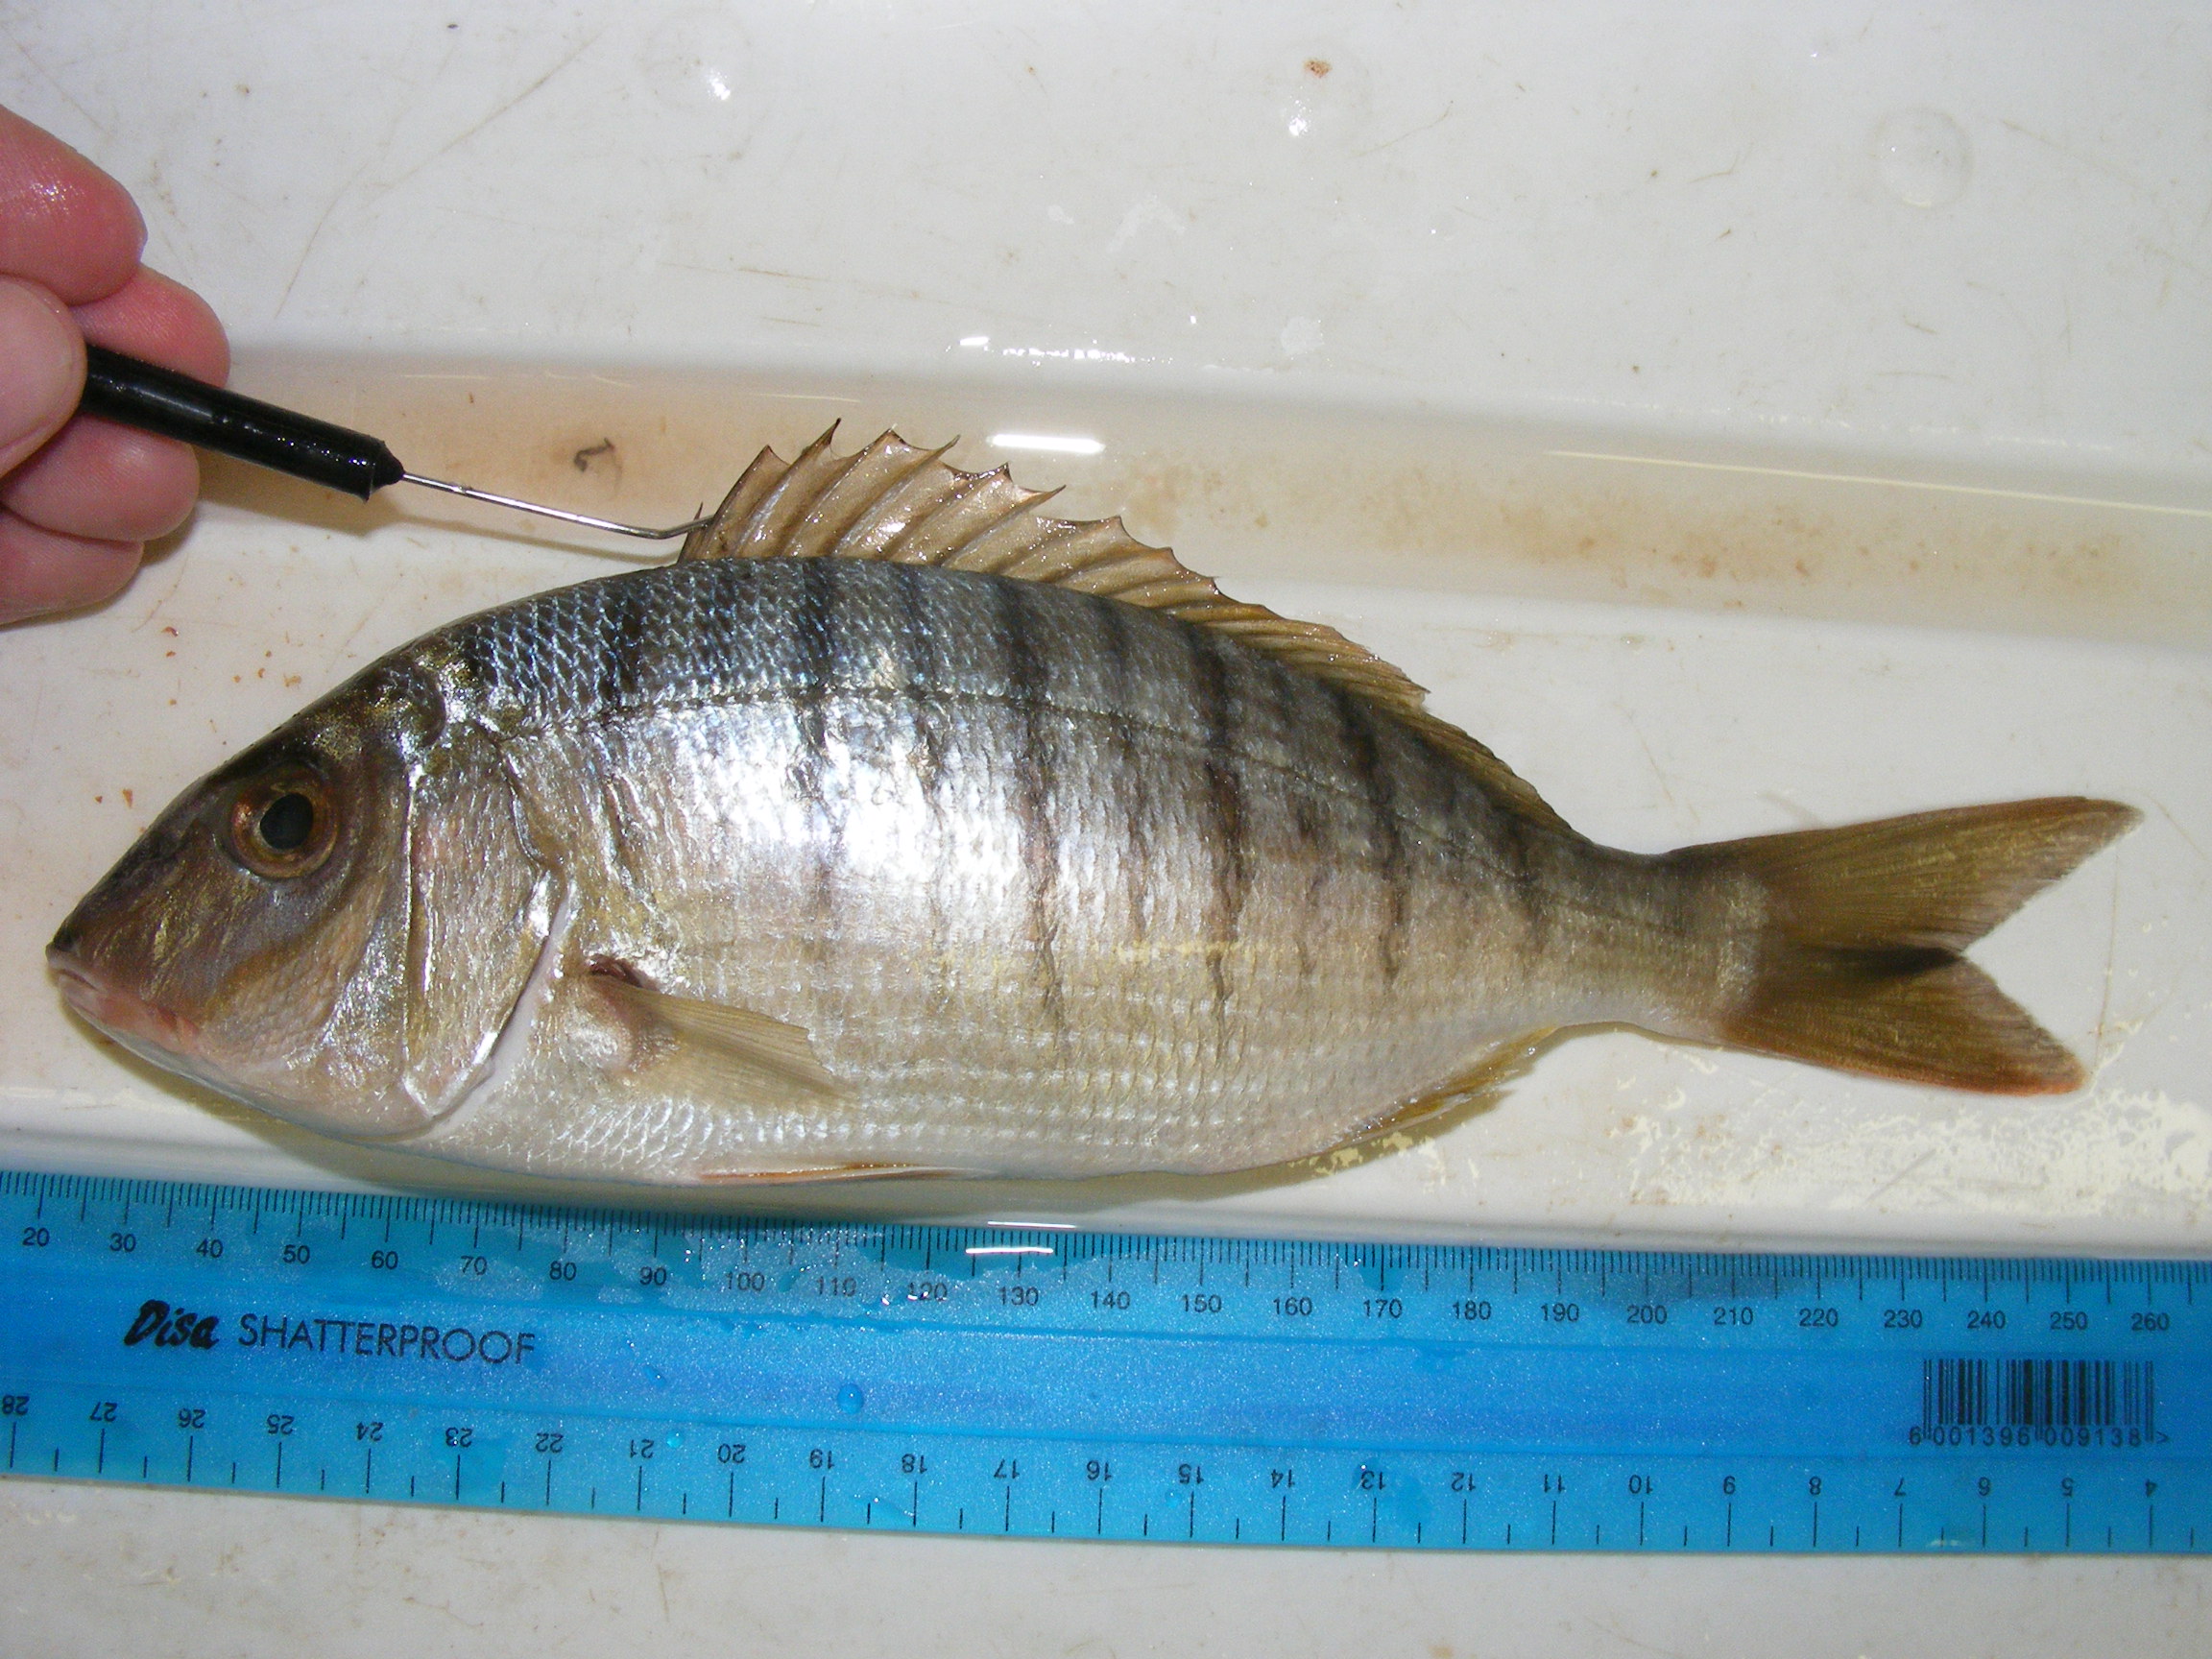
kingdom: Animalia
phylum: Chordata
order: Perciformes
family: Sparidae
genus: Lithognathus
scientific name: Lithognathus mormyrus
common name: Sand steenbras
